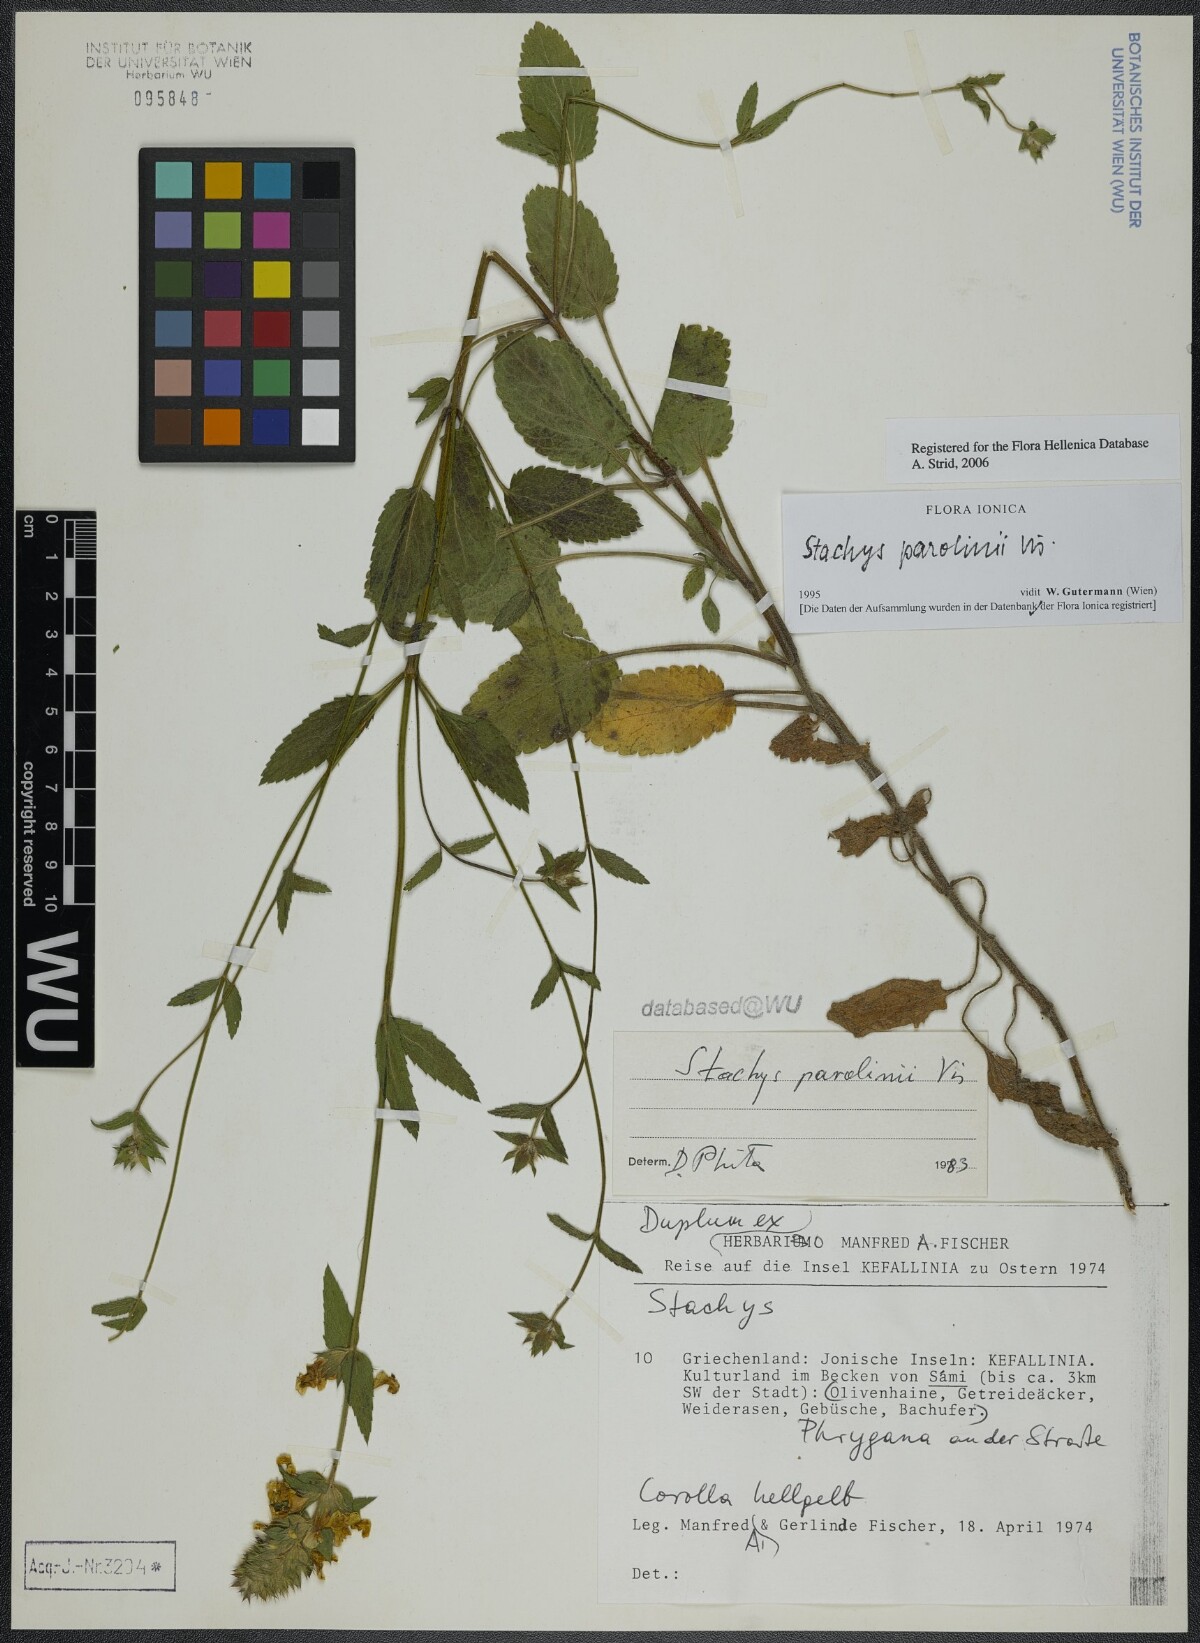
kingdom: Plantae
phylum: Tracheophyta
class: Magnoliopsida
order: Lamiales
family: Lamiaceae
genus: Stachys
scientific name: Stachys parolinii
